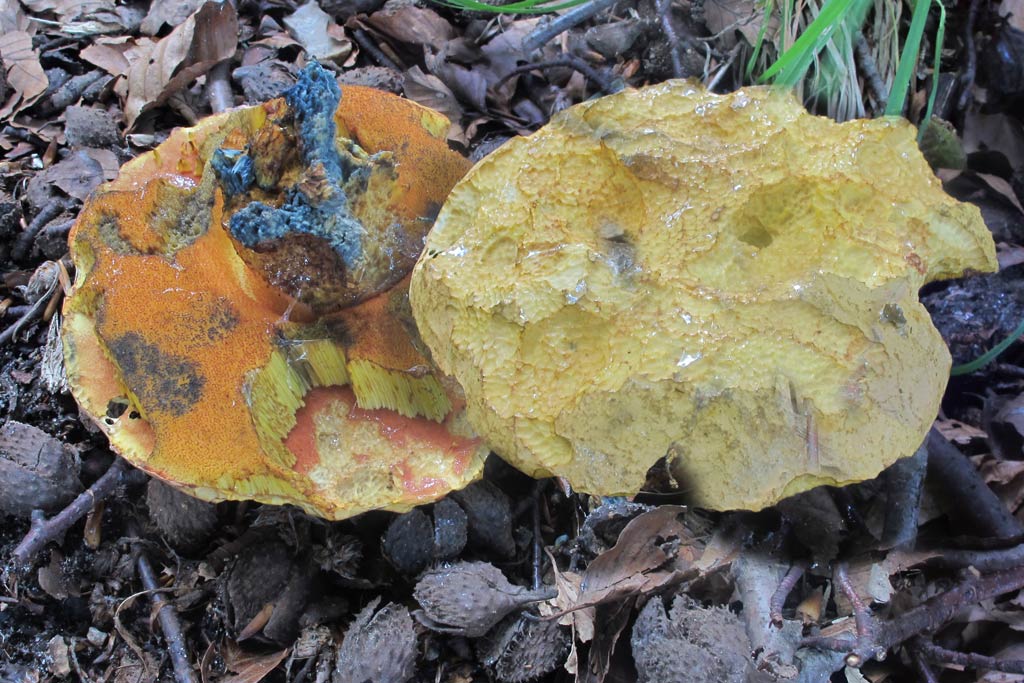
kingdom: Fungi
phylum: Basidiomycota
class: Agaricomycetes
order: Boletales
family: Boletaceae
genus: Suillellus
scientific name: Suillellus luridus
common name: netstokket indigorørhat
